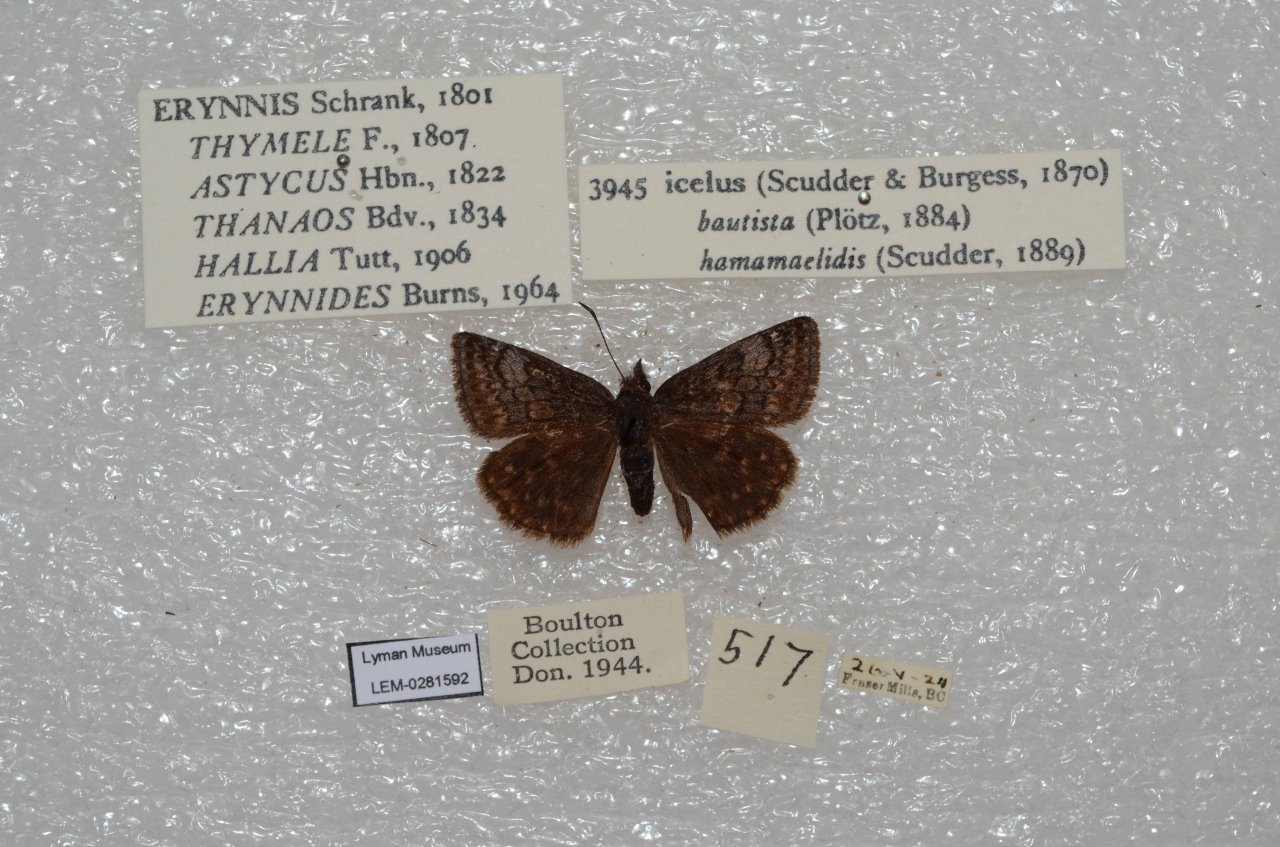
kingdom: Animalia
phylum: Arthropoda
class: Insecta
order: Lepidoptera
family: Hesperiidae
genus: Erynnis
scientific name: Erynnis icelus
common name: Dreamy Duskywing
